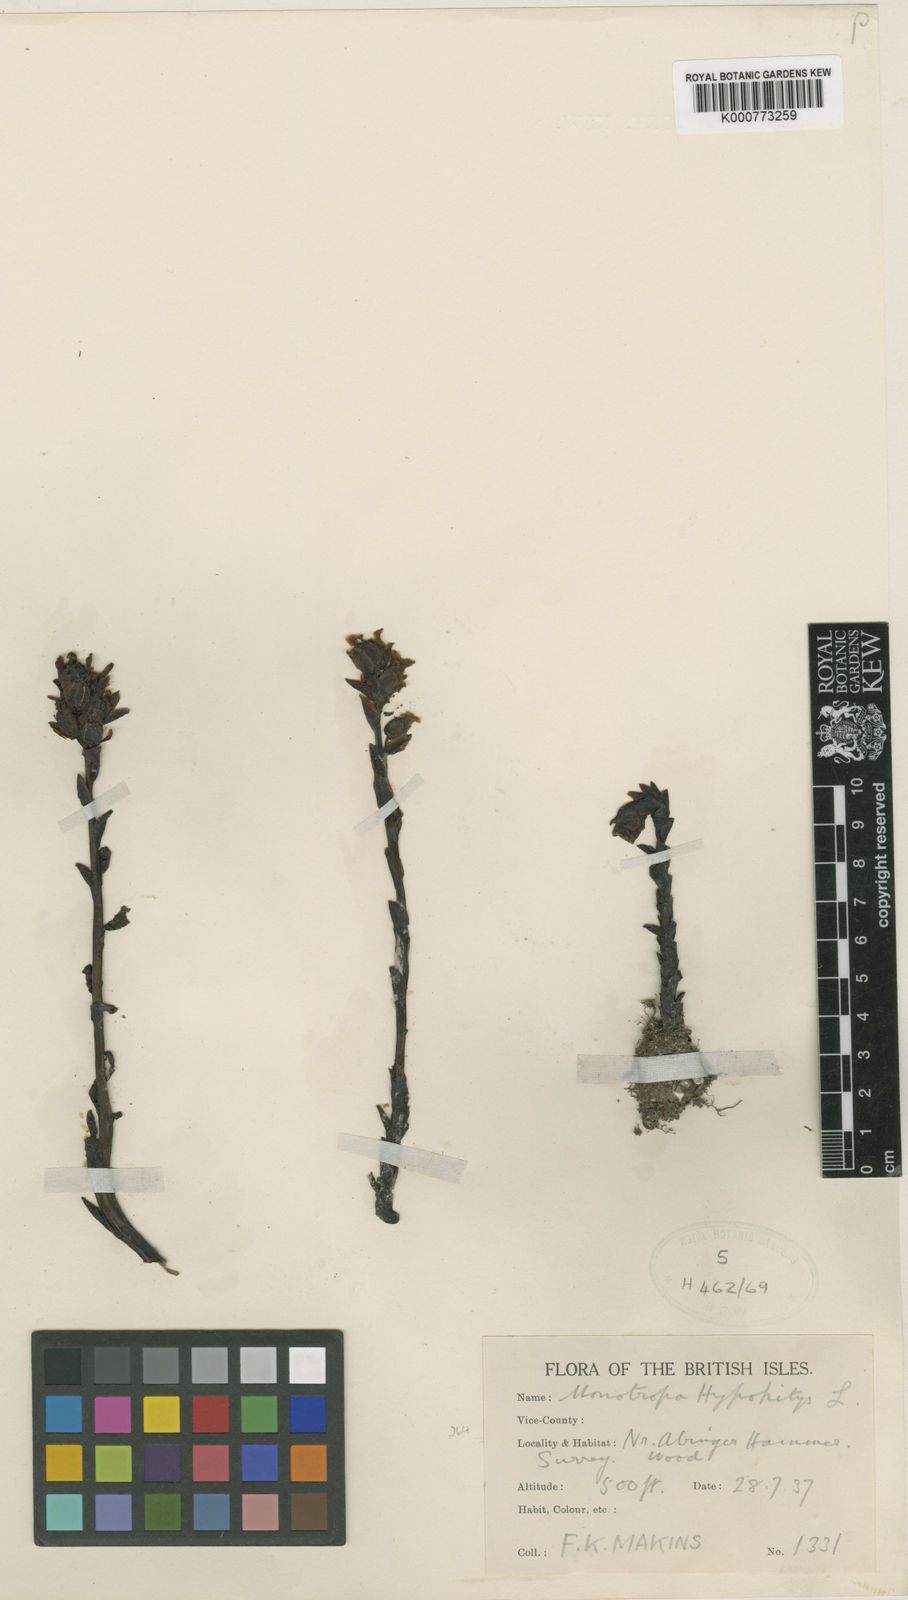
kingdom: Plantae
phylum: Tracheophyta
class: Magnoliopsida
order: Ericales
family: Ericaceae
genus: Monotropa
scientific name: Monotropa
